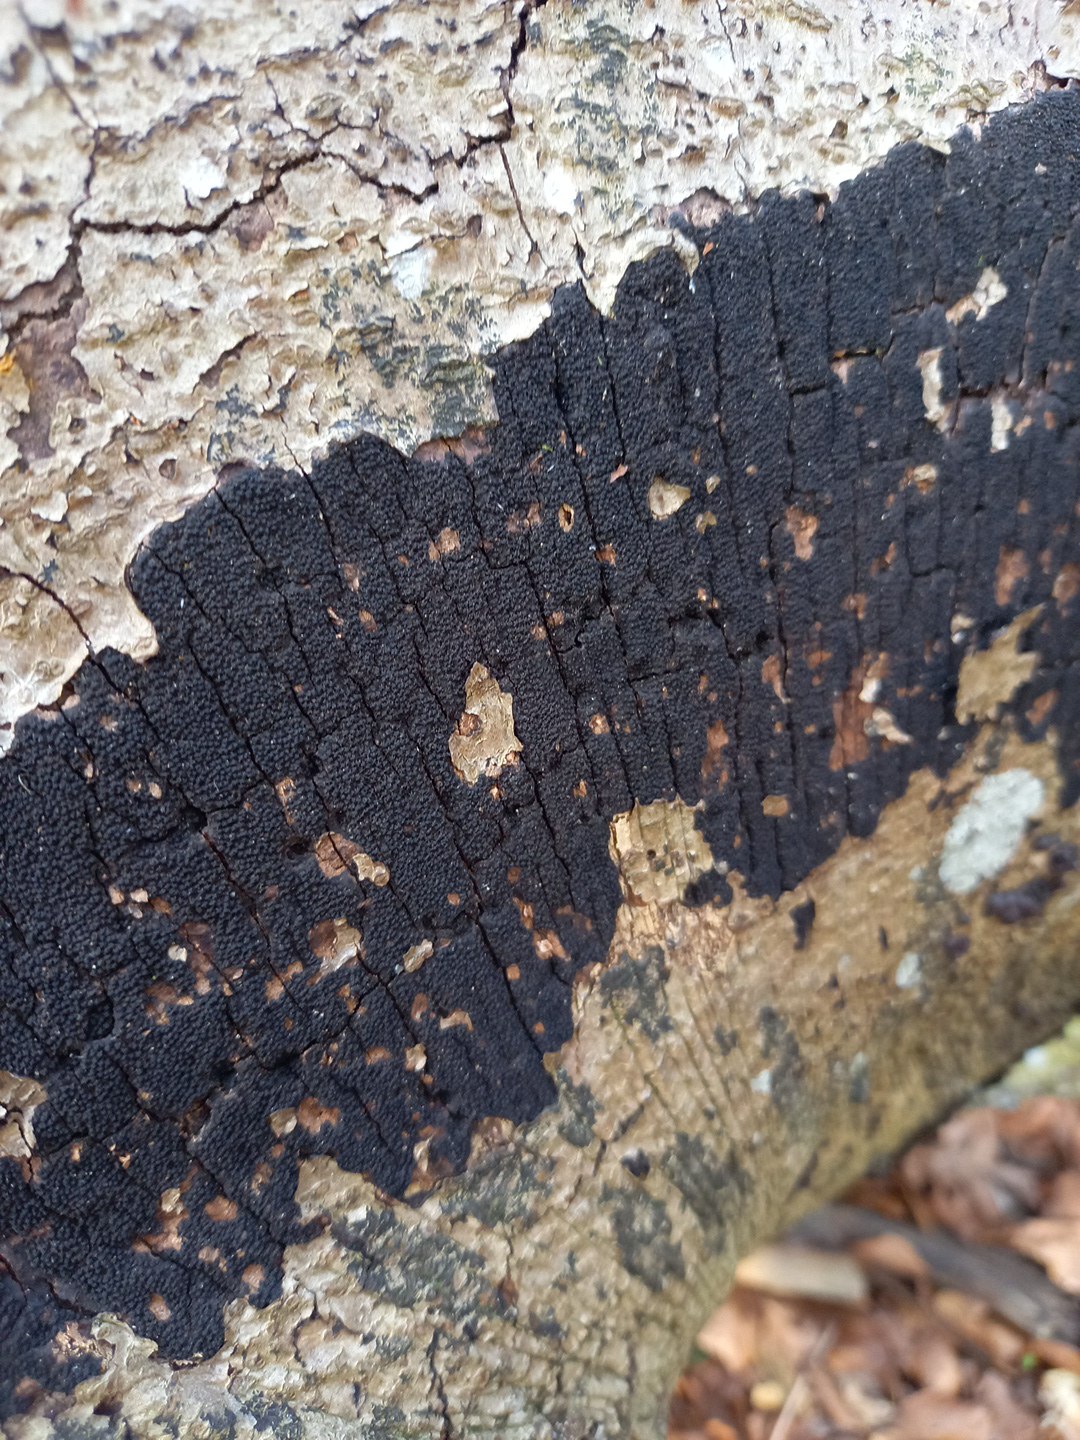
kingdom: Fungi
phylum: Ascomycota
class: Sordariomycetes
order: Xylariales
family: Diatrypaceae
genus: Eutypa
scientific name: Eutypa spinosa
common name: grov kulskorpe
